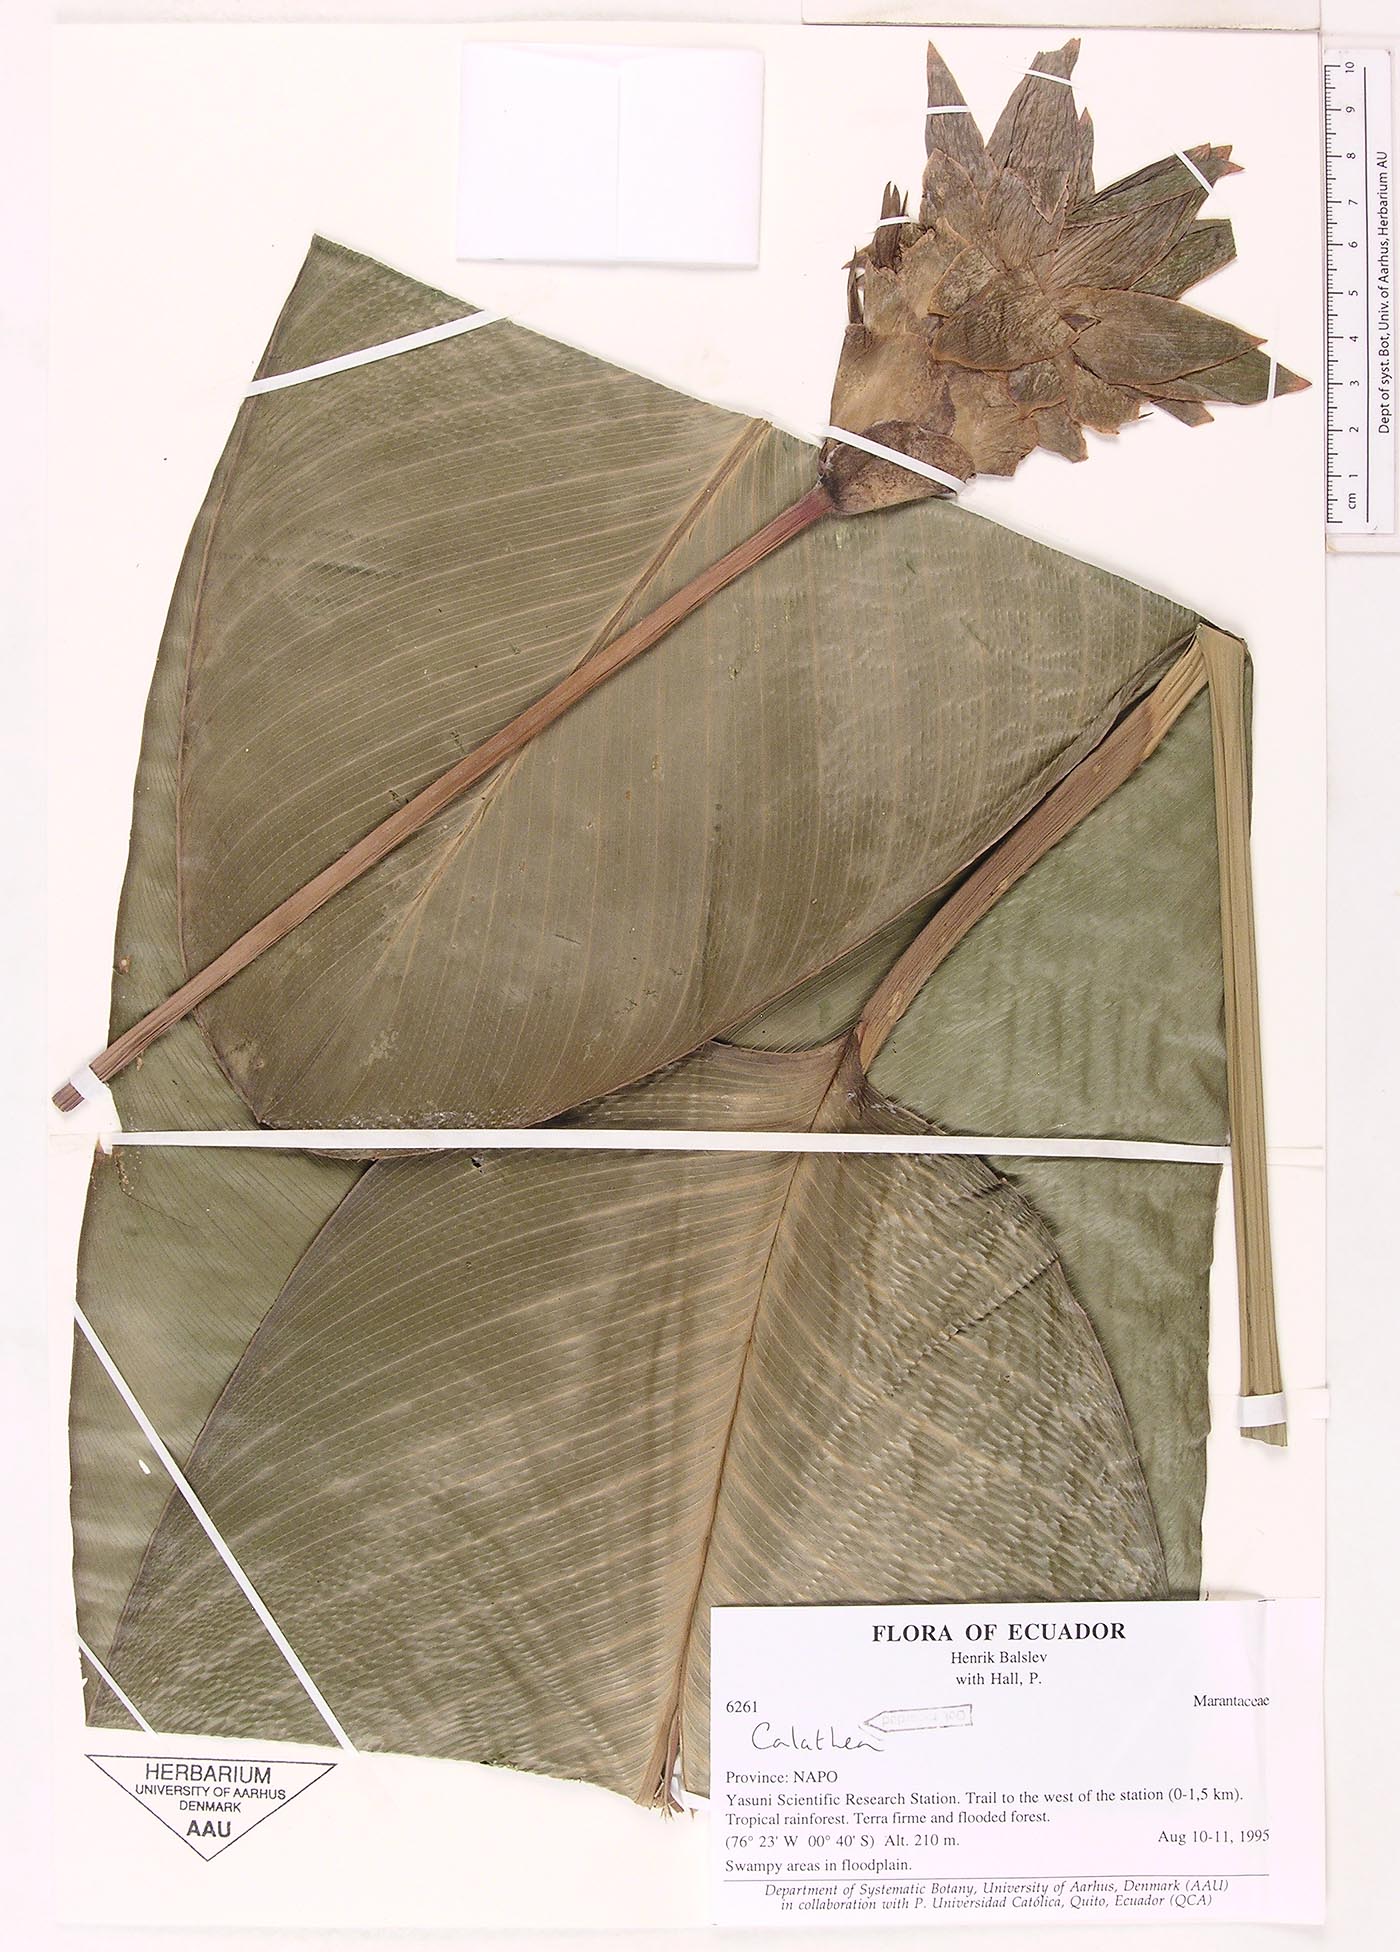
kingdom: Plantae
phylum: Tracheophyta
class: Magnoliopsida
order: Laurales
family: Lauraceae
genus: Goeppertia
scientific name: Goeppertia
